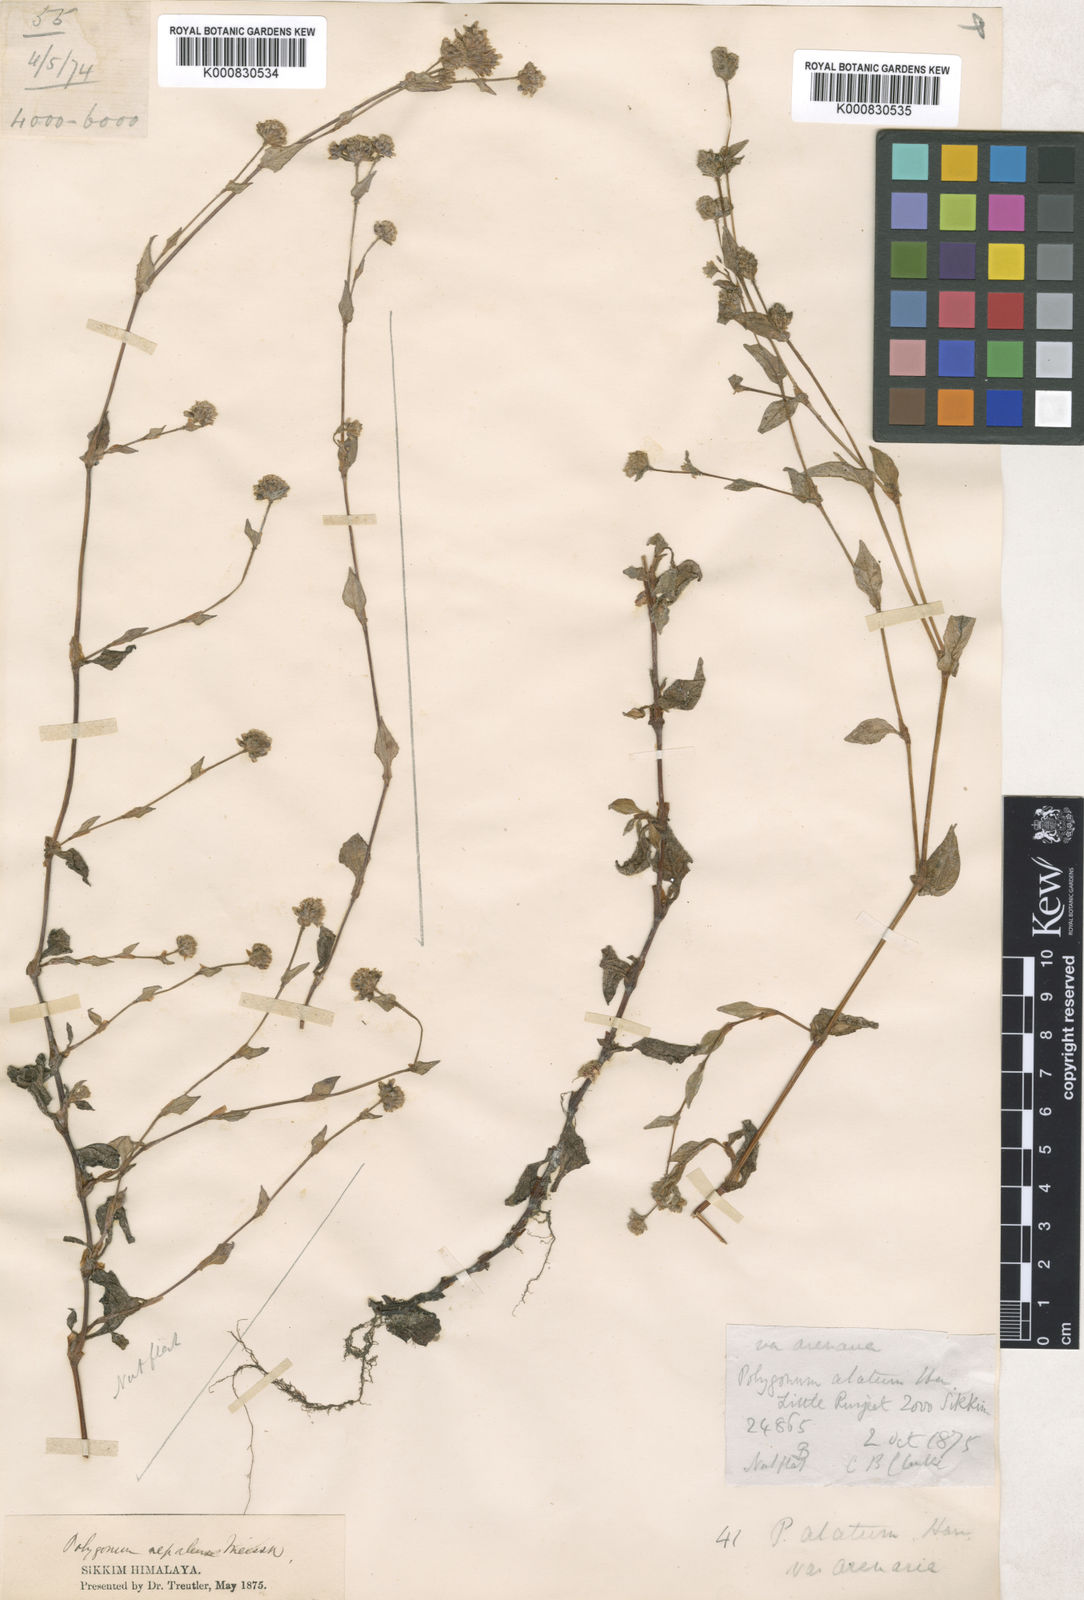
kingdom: Plantae
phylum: Tracheophyta
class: Magnoliopsida
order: Caryophyllales
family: Polygonaceae
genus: Polygonum
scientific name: Polygonum
